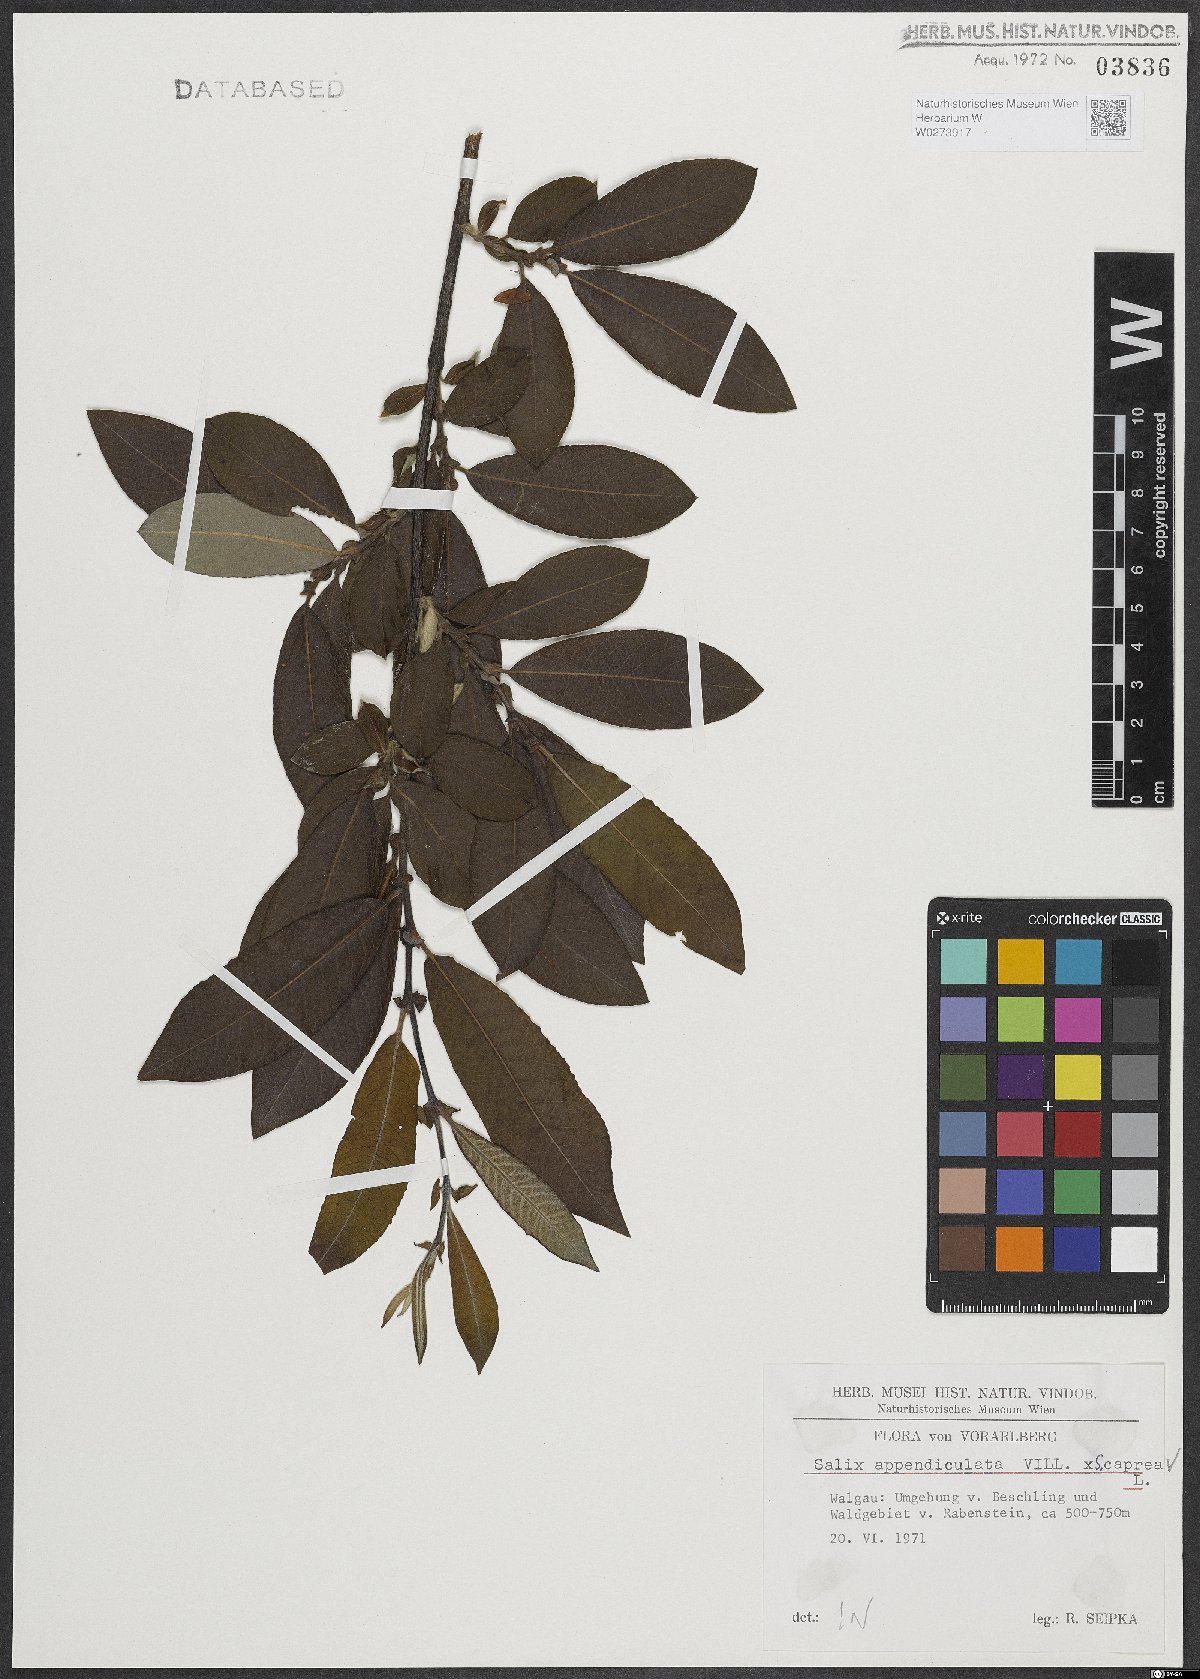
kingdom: Plantae
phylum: Tracheophyta
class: Magnoliopsida
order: Malpighiales
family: Salicaceae
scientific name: Salicaceae
